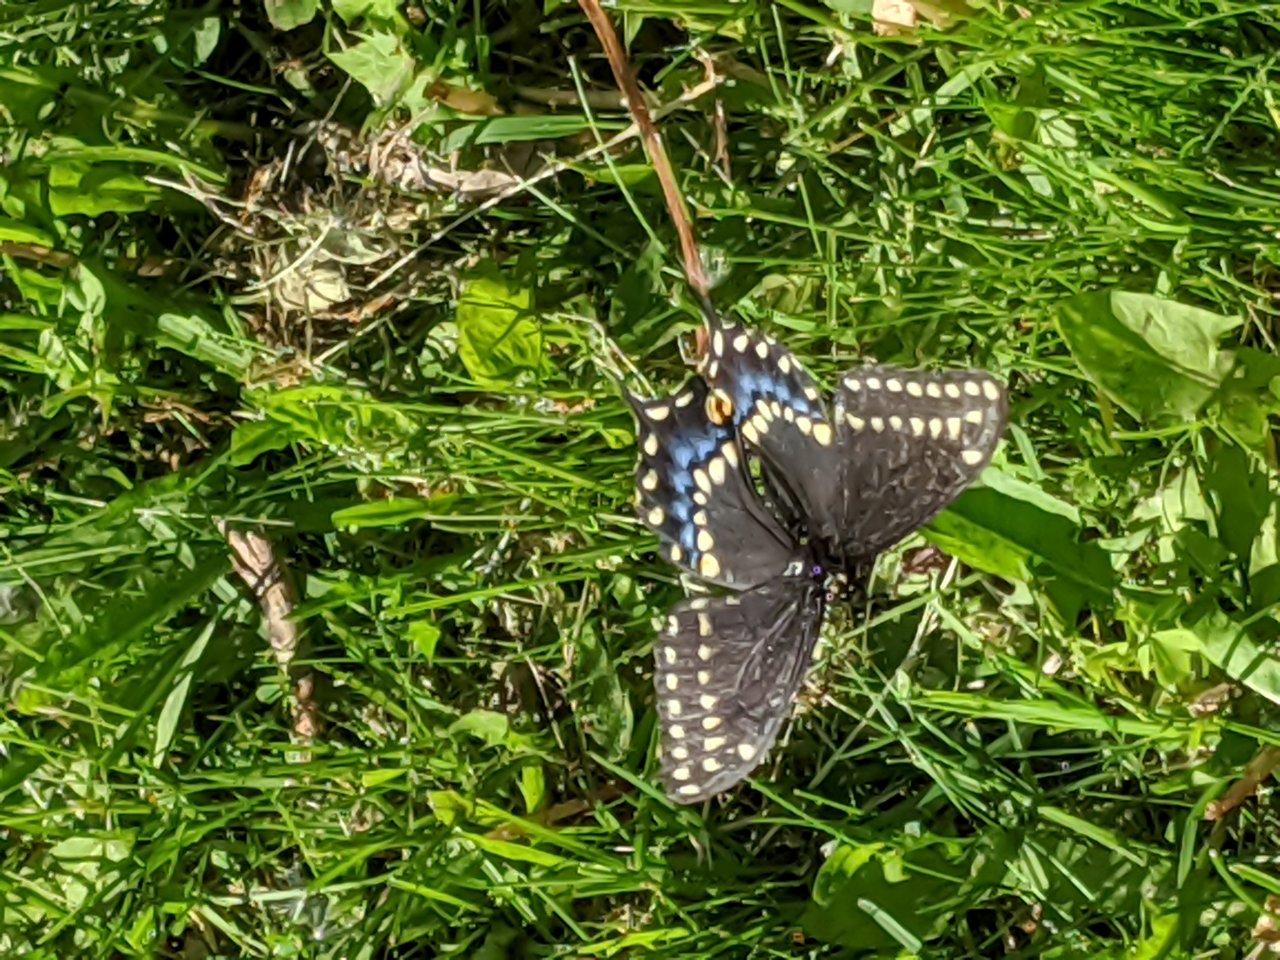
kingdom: Animalia
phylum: Arthropoda
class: Insecta
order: Lepidoptera
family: Papilionidae
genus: Papilio
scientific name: Papilio polyxenes
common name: Black Swallowtail
